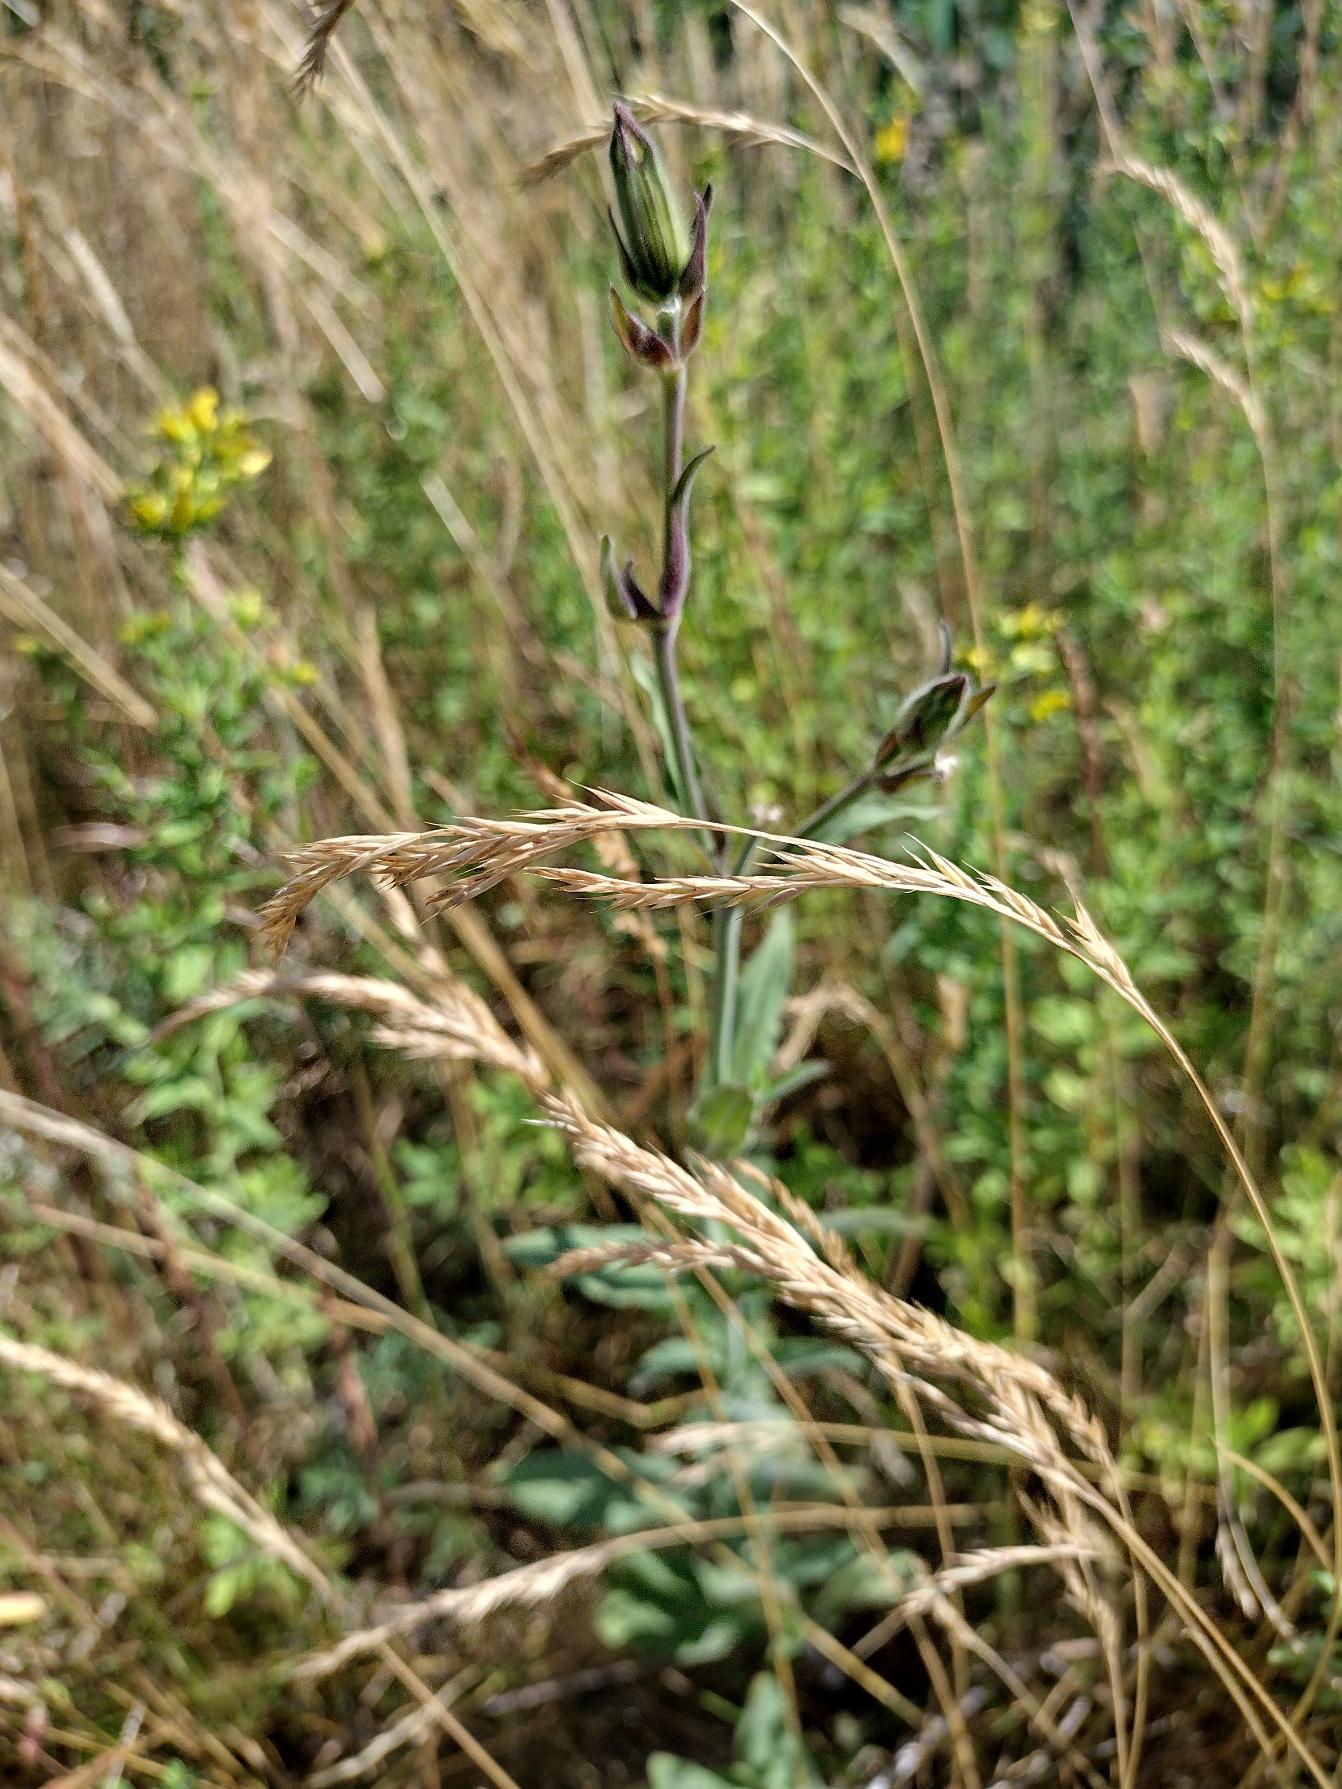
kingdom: Plantae
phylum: Tracheophyta
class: Magnoliopsida
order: Caryophyllales
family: Caryophyllaceae
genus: Silene
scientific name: Silene latifolia
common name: Aftenpragtstjerne
